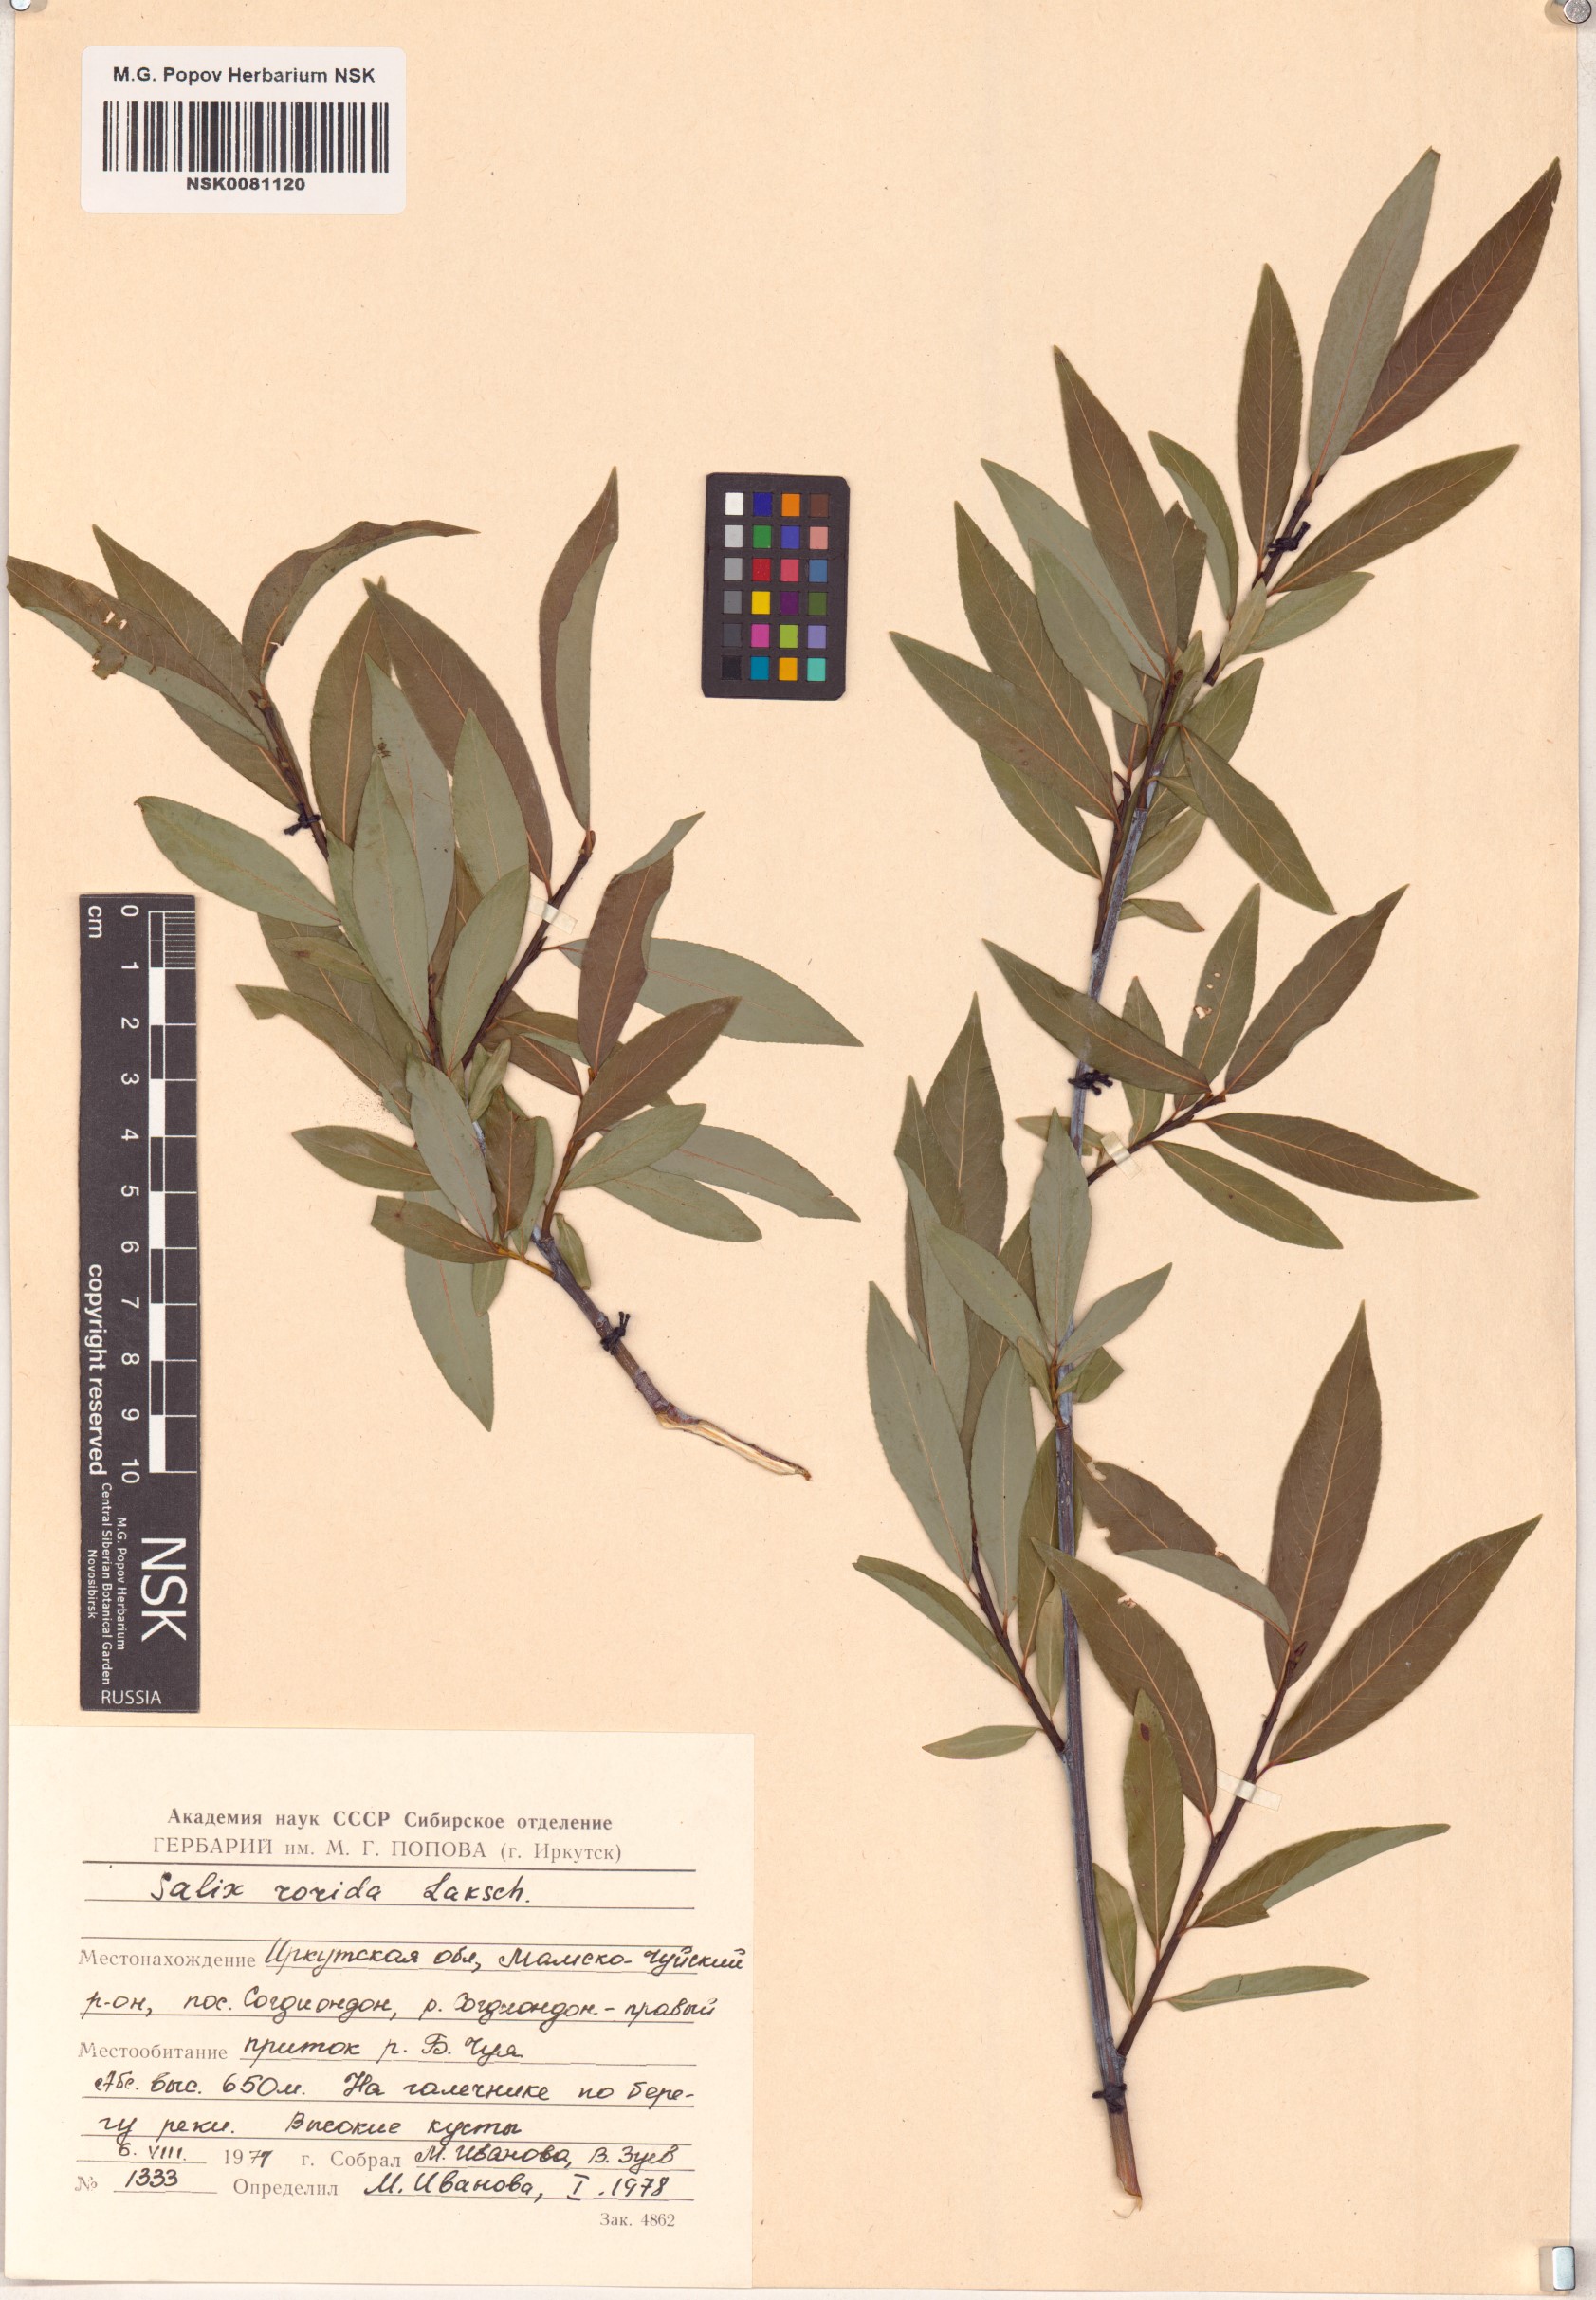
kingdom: Plantae
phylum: Tracheophyta
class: Magnoliopsida
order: Malpighiales
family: Salicaceae
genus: Salix
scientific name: Salix rorida
